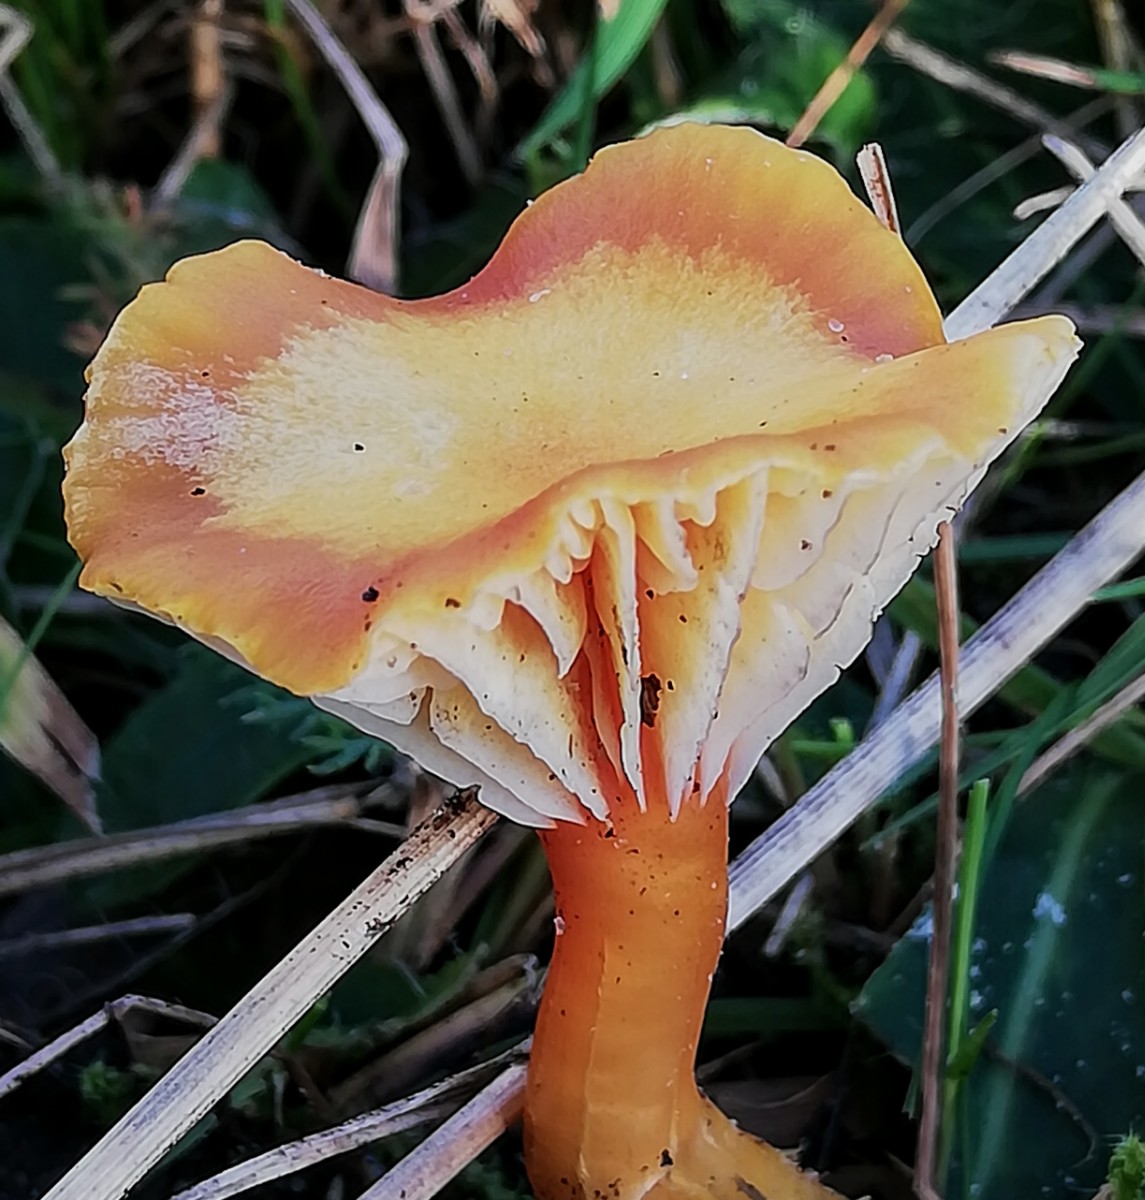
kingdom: Fungi
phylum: Basidiomycota
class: Agaricomycetes
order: Agaricales
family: Hygrophoraceae
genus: Hygrocybe
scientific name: Hygrocybe insipida
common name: liden vokshat
